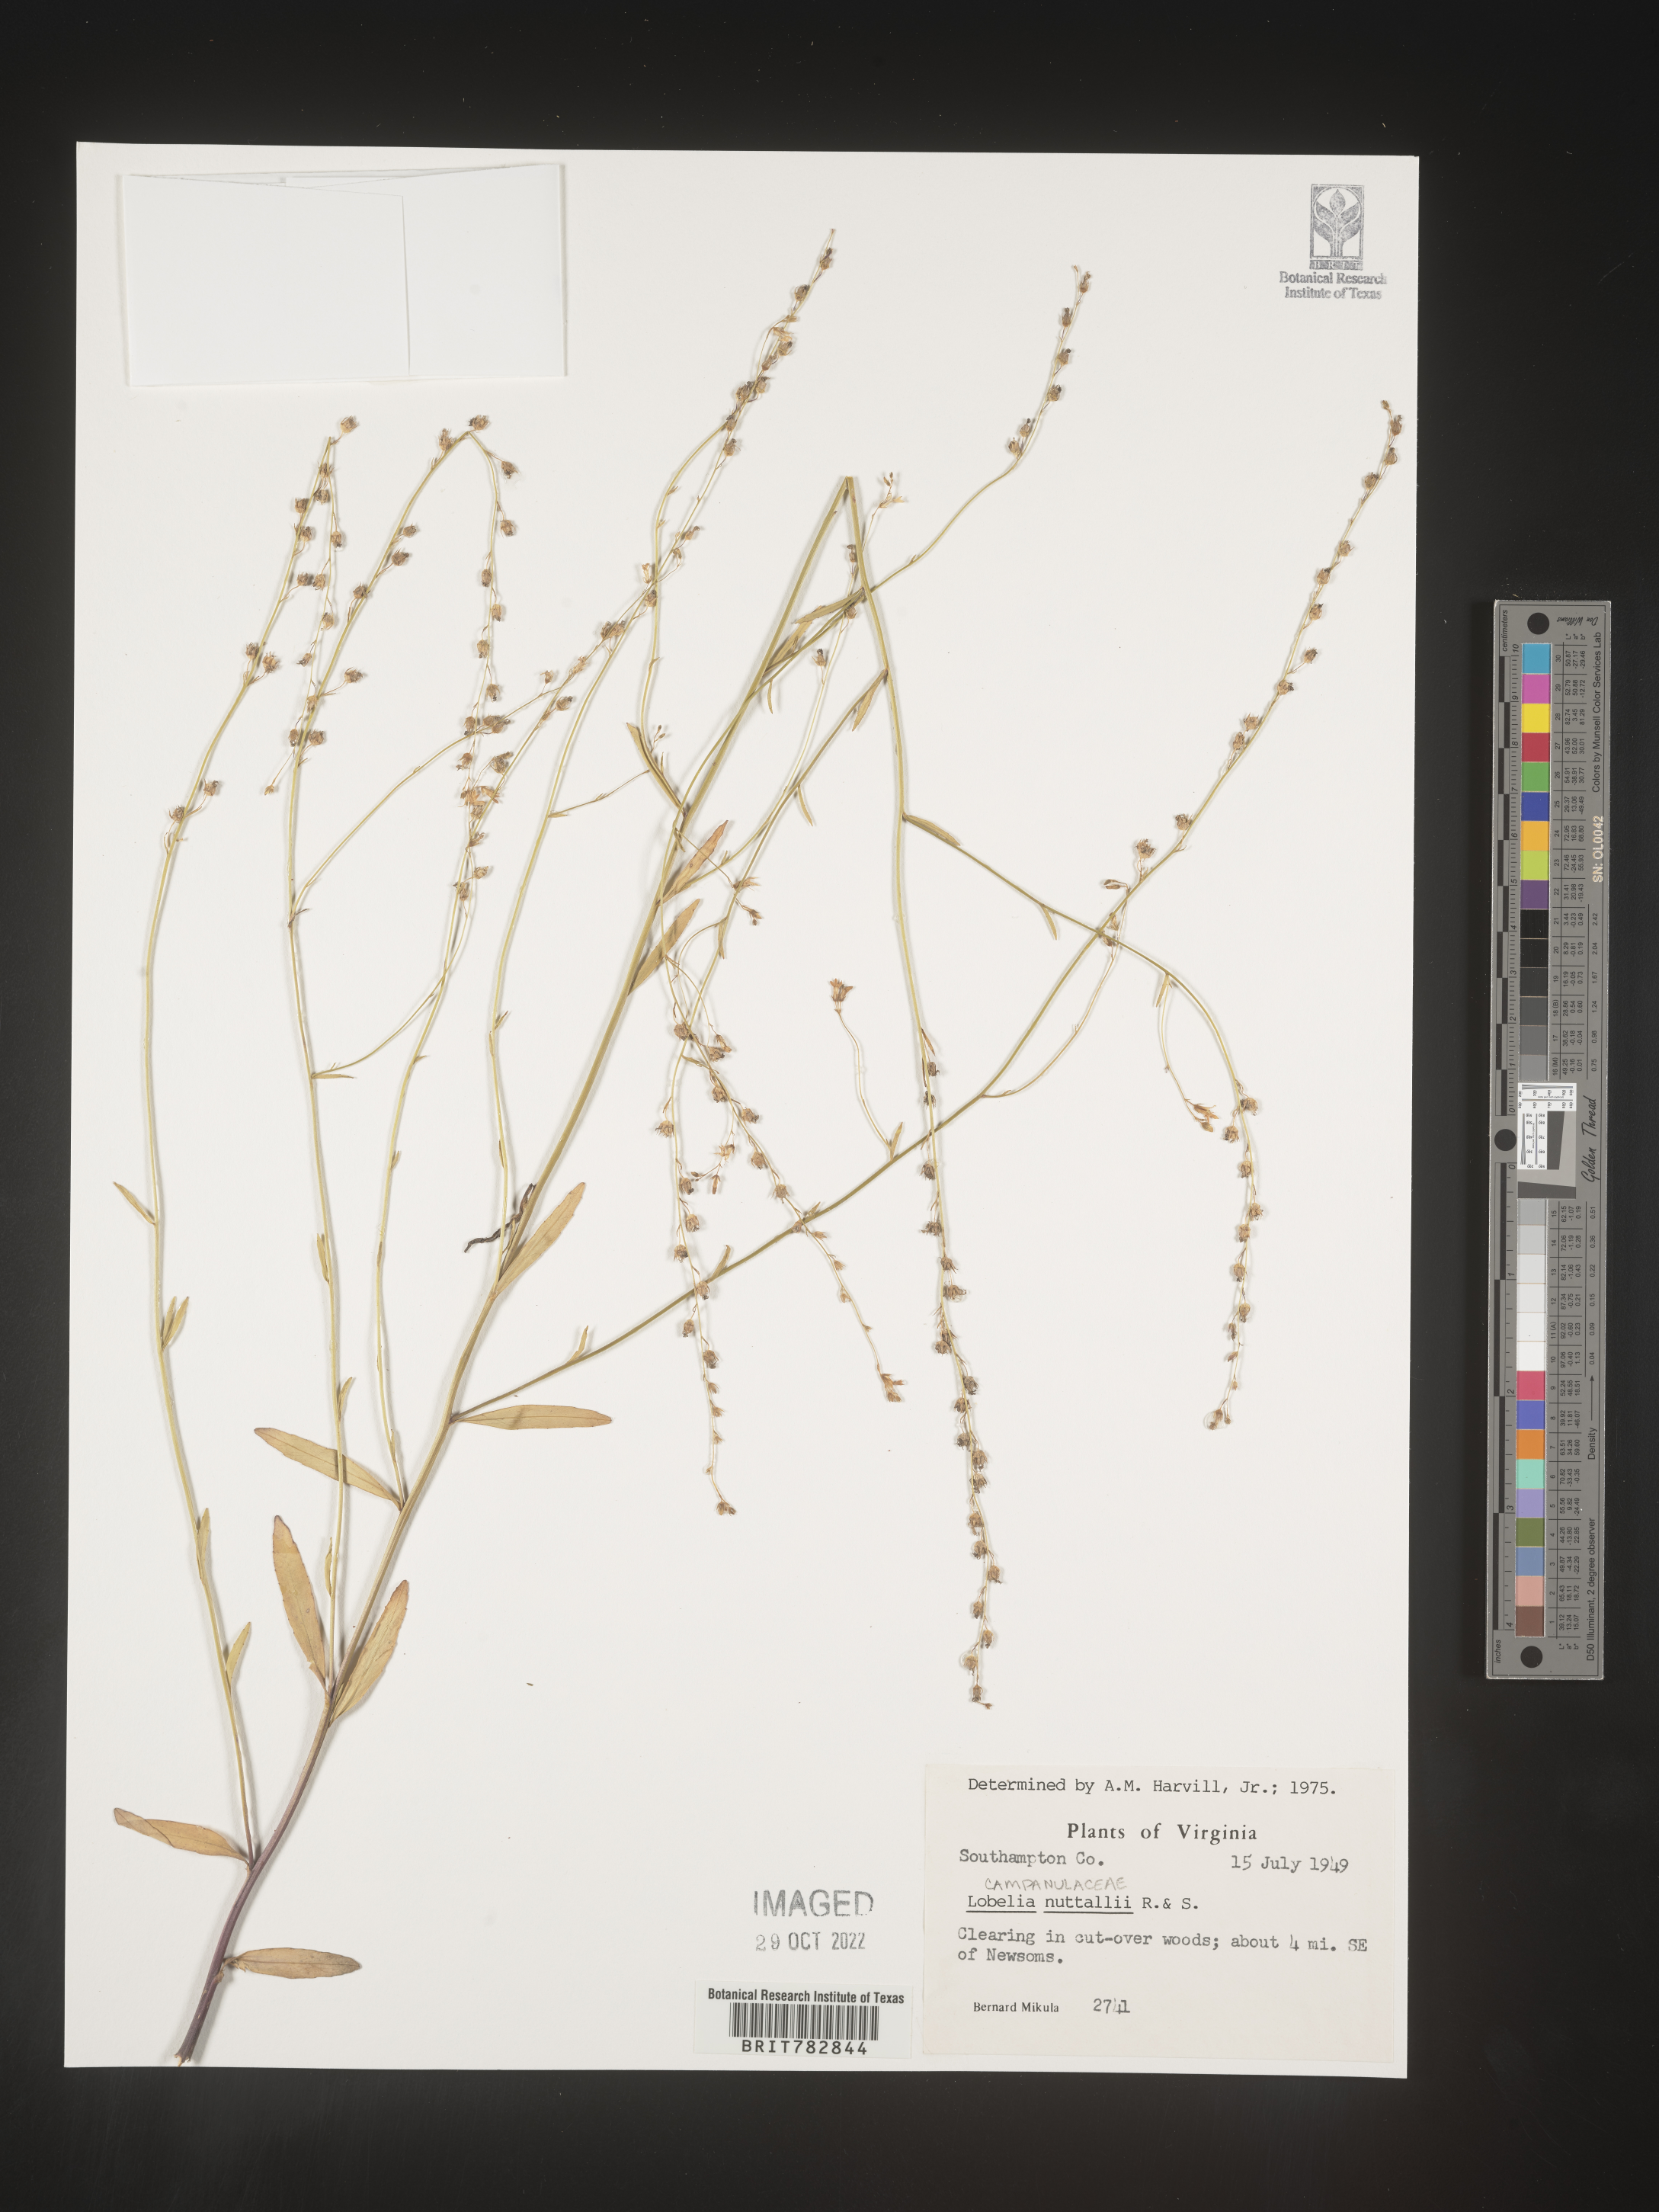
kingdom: Plantae
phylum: Tracheophyta
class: Magnoliopsida
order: Asterales
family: Campanulaceae
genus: Lobelia
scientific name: Lobelia nuttallii
